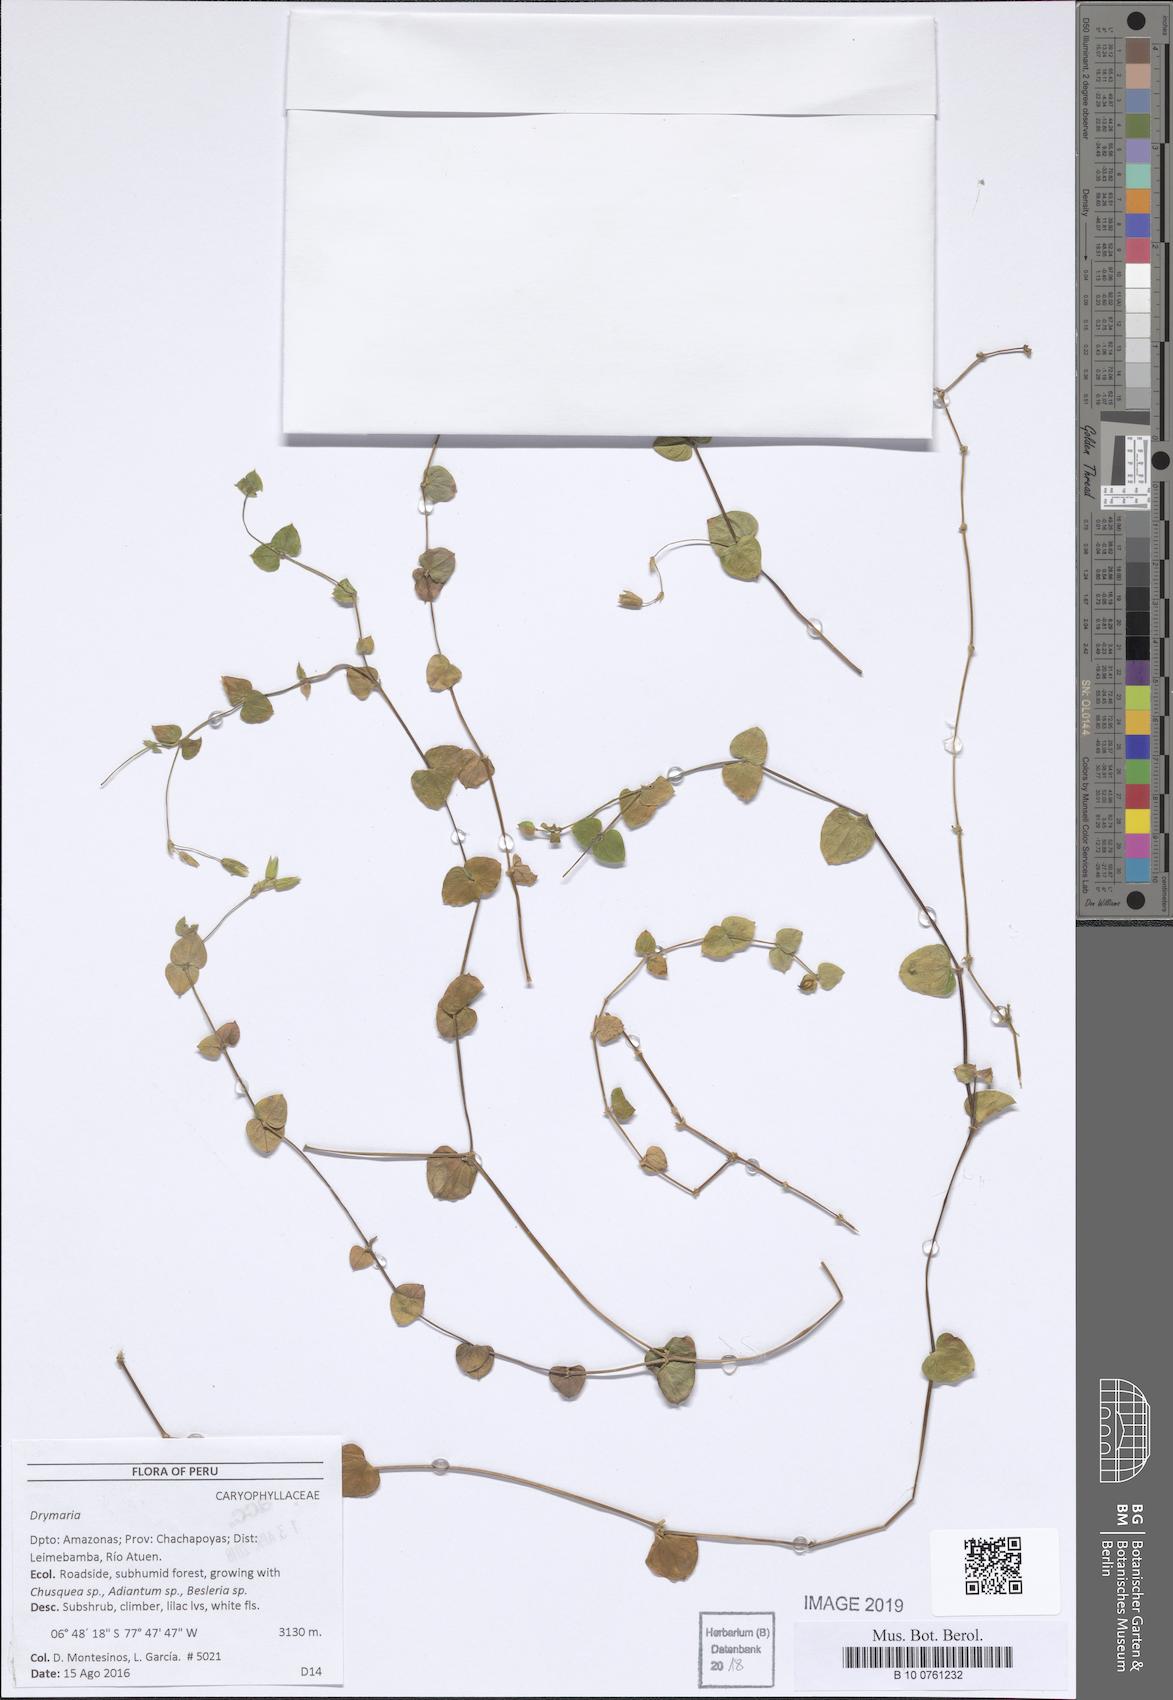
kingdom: Plantae
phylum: Tracheophyta
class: Magnoliopsida
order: Caryophyllales
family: Caryophyllaceae
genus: Drymaria
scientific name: Drymaria
